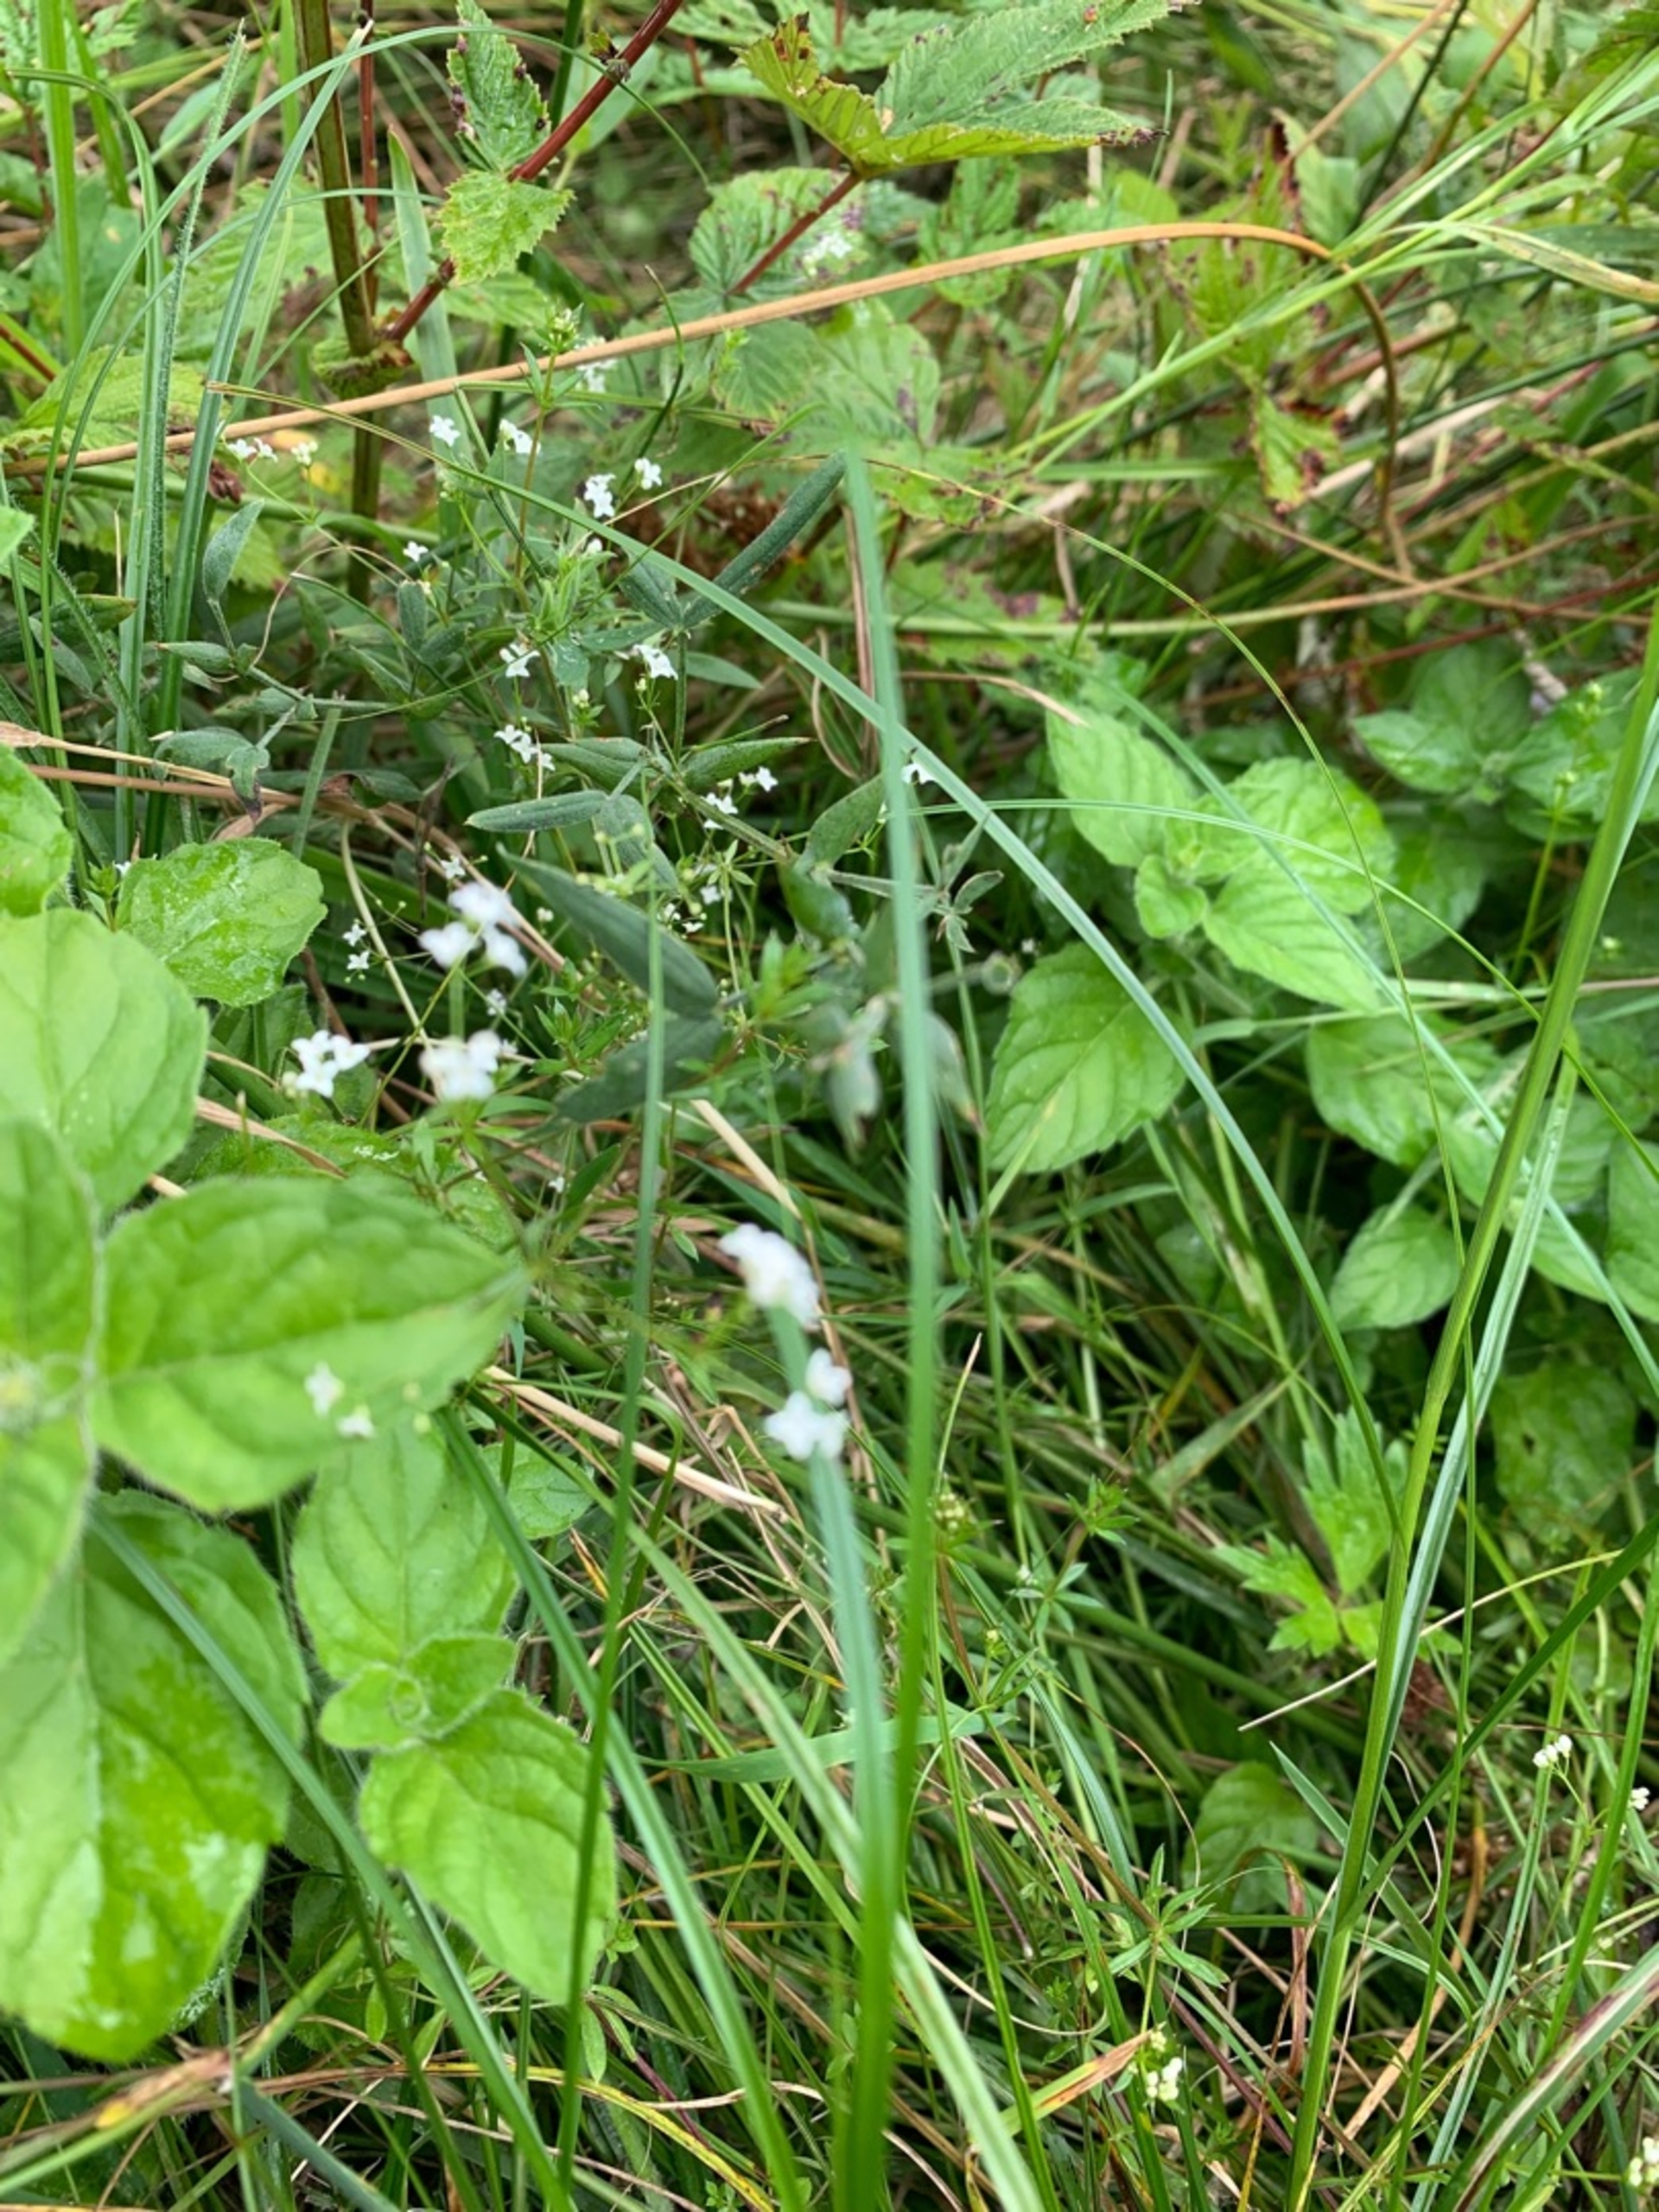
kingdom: Plantae
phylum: Tracheophyta
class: Magnoliopsida
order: Gentianales
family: Rubiaceae
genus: Galium
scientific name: Galium uliginosum
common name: Sump-snerre
